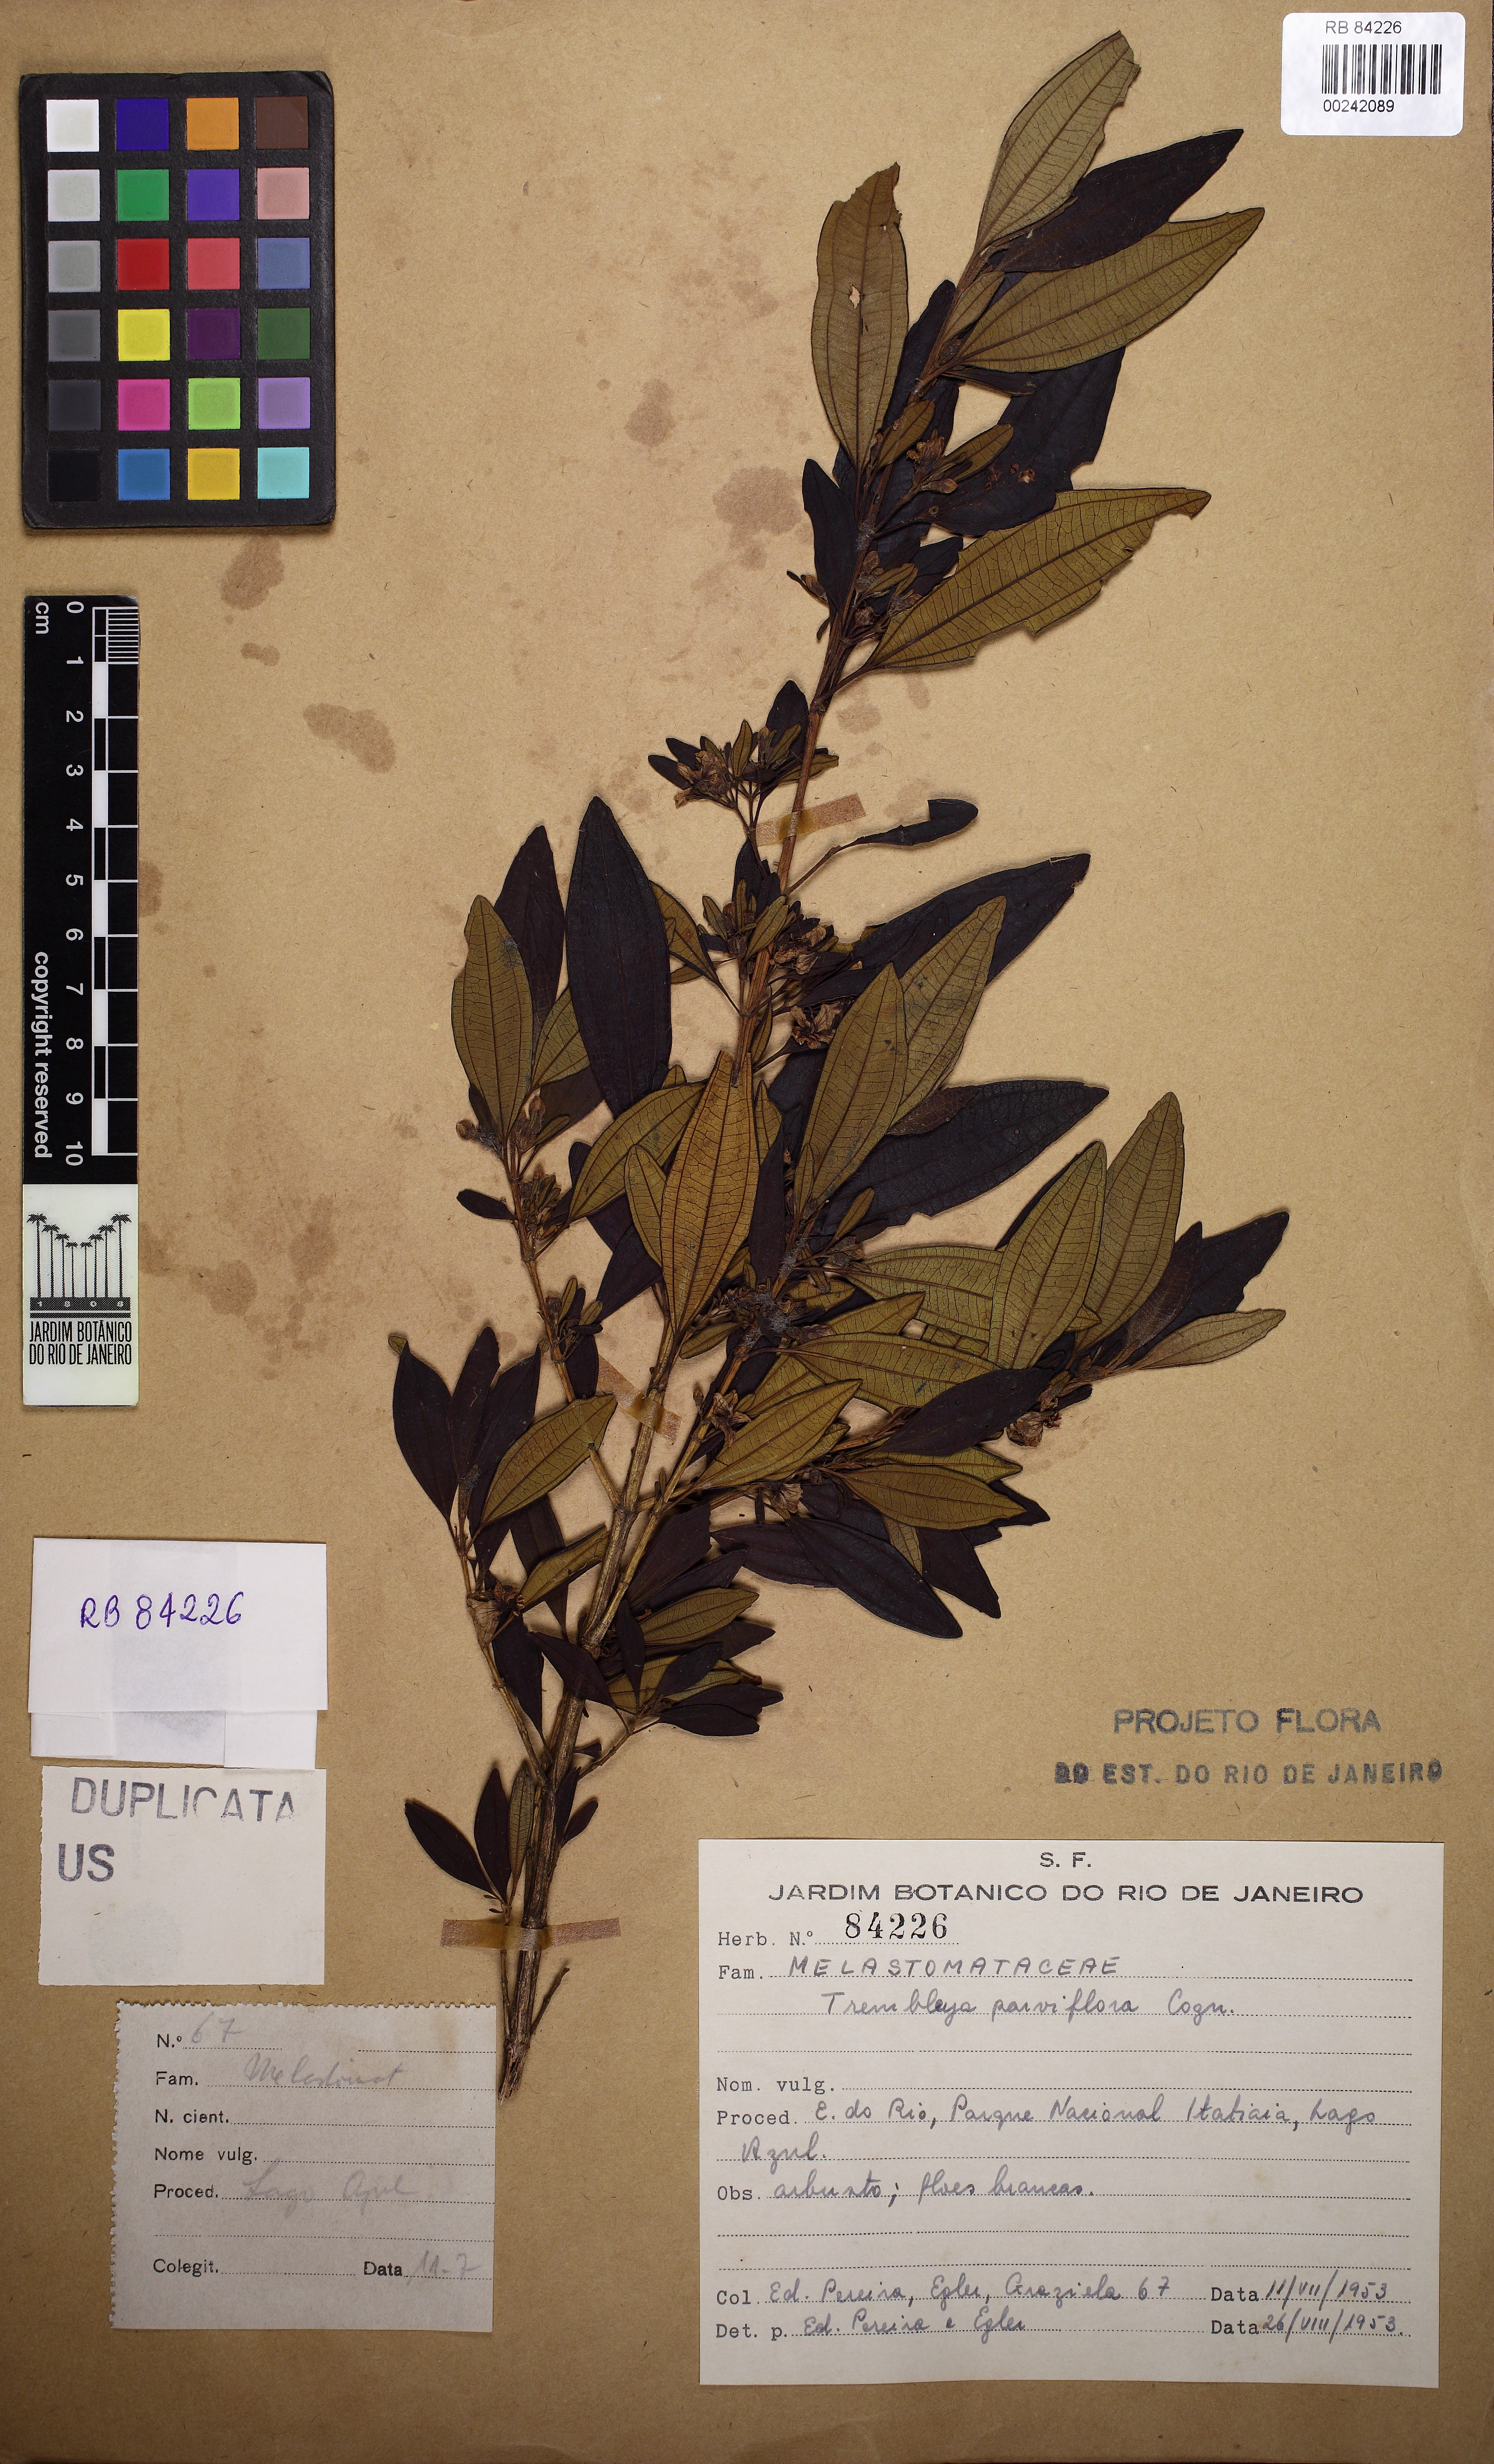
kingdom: Plantae
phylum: Tracheophyta
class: Magnoliopsida
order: Myrtales
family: Melastomataceae
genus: Microlicia
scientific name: Microlicia parviflora
